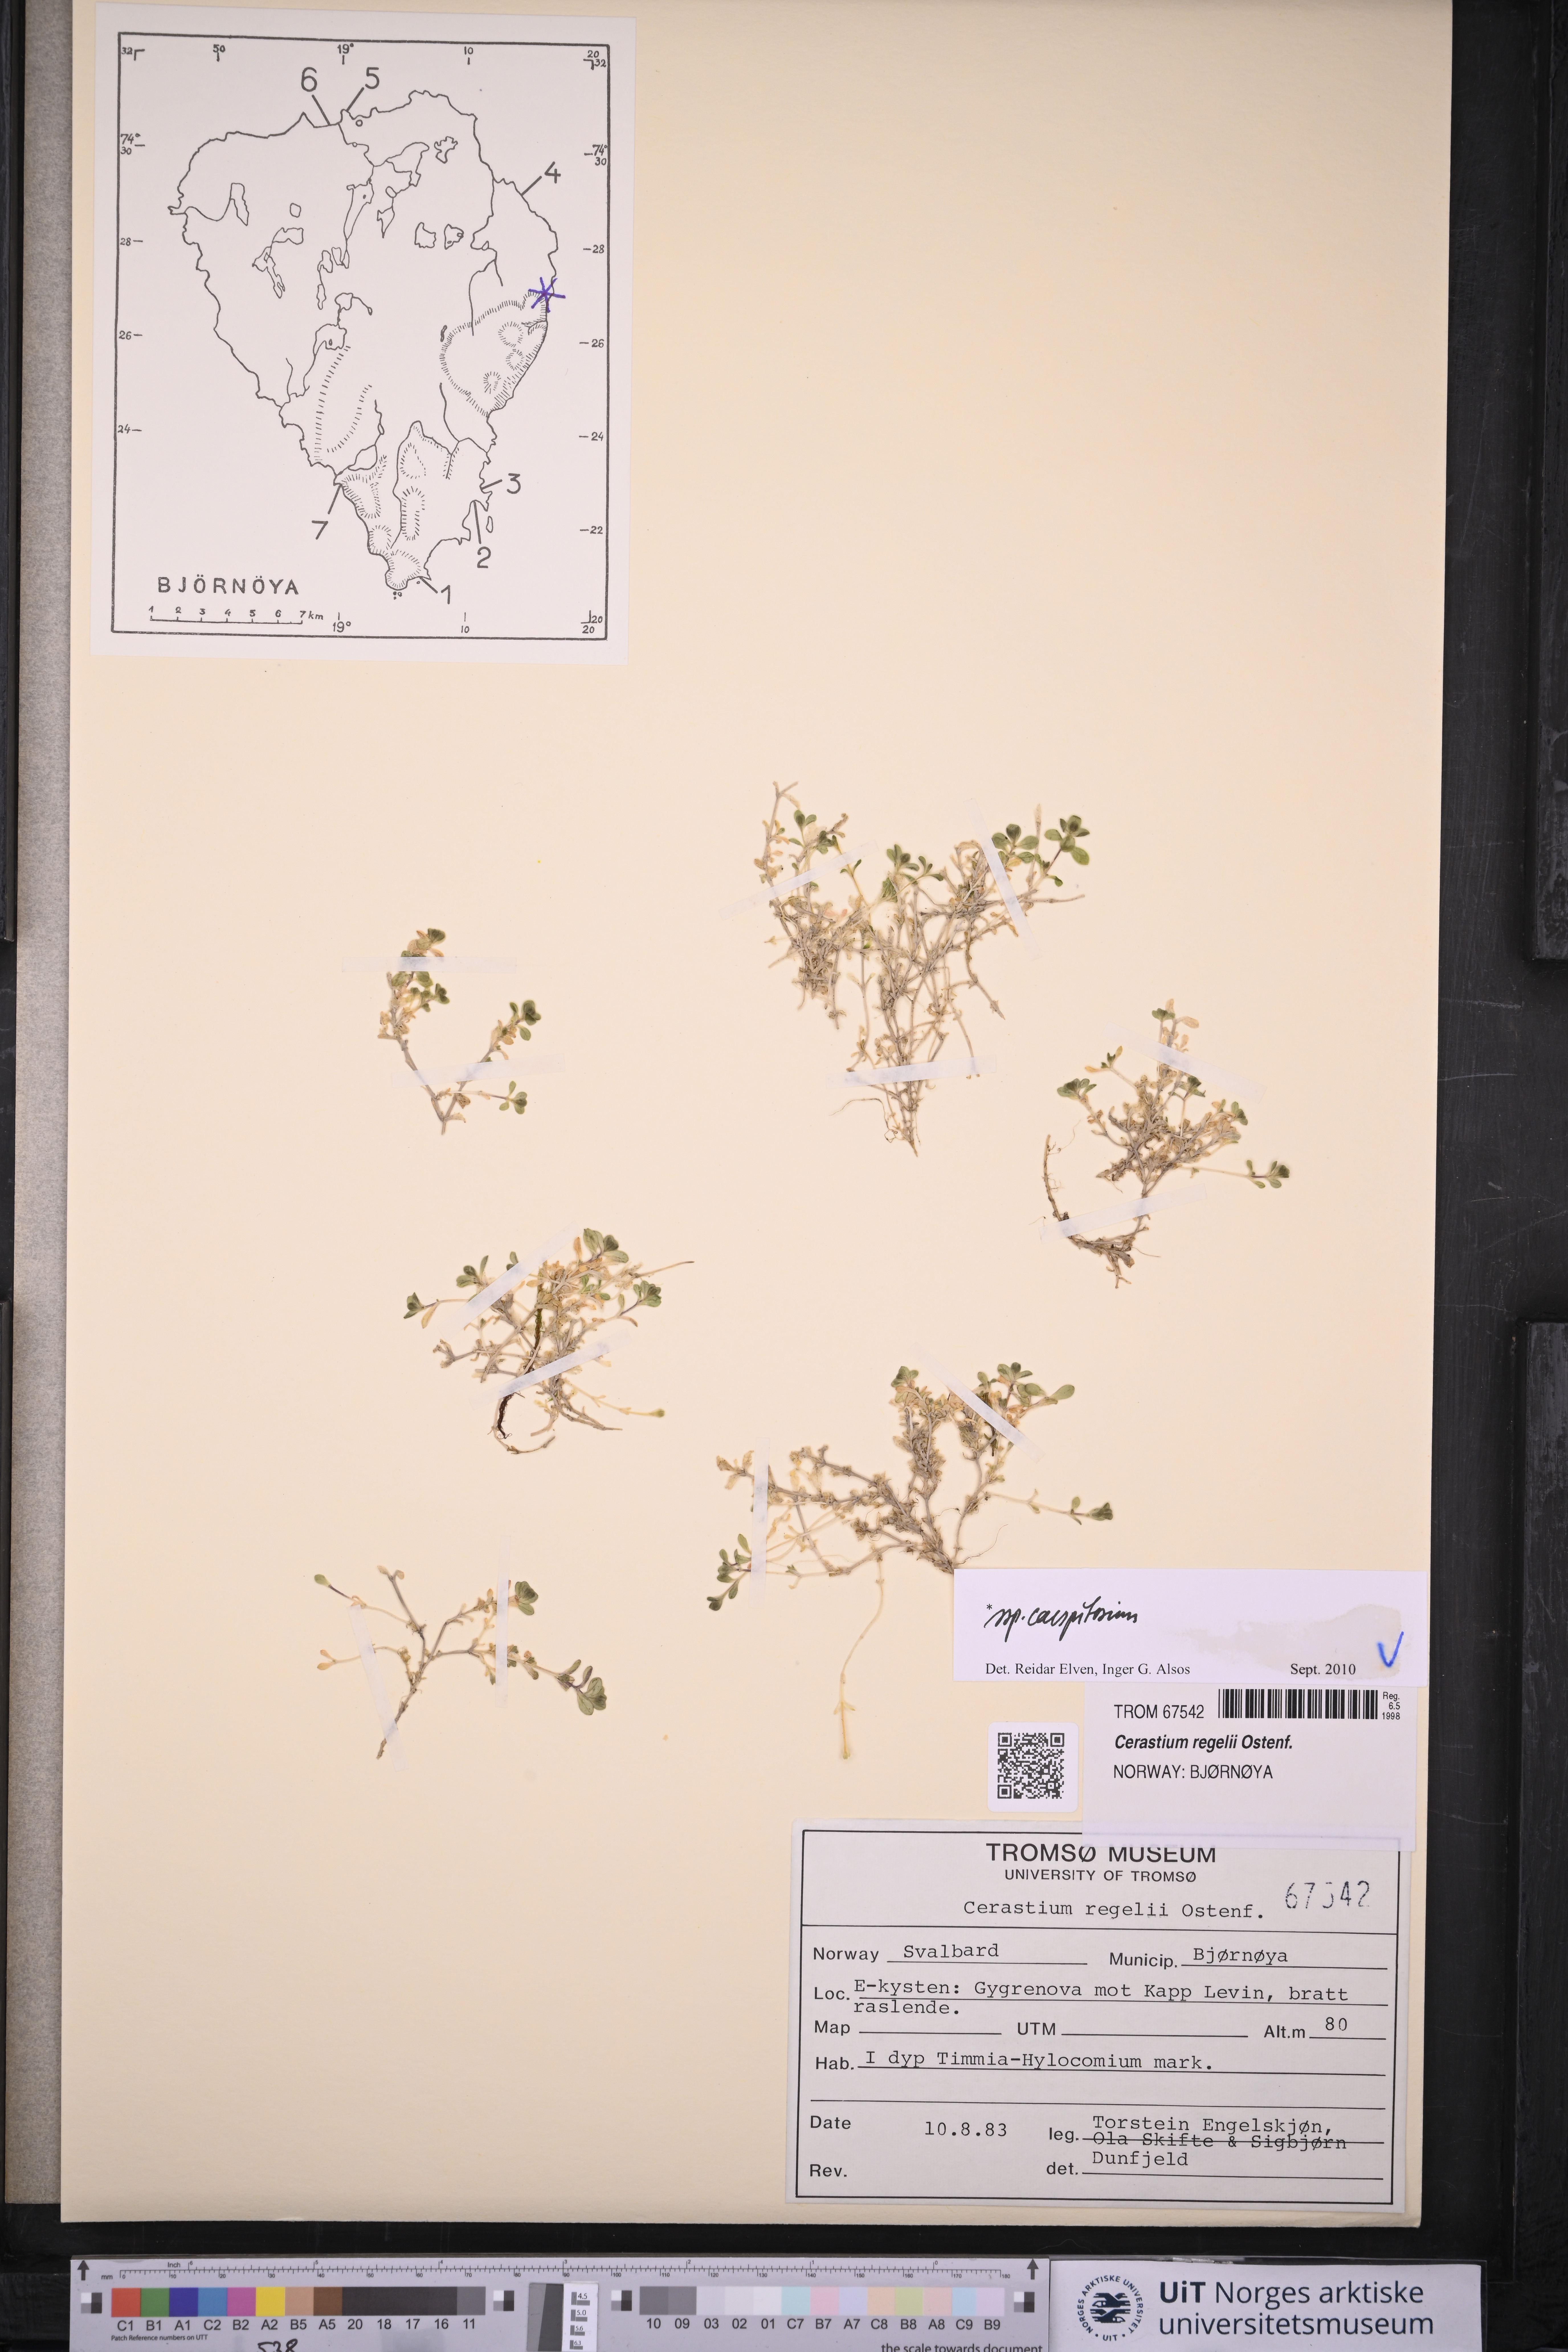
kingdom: Plantae
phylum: Tracheophyta
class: Magnoliopsida
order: Caryophyllales
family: Caryophyllaceae
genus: Cerastium
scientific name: Cerastium regelii
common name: Regel's chickweed
